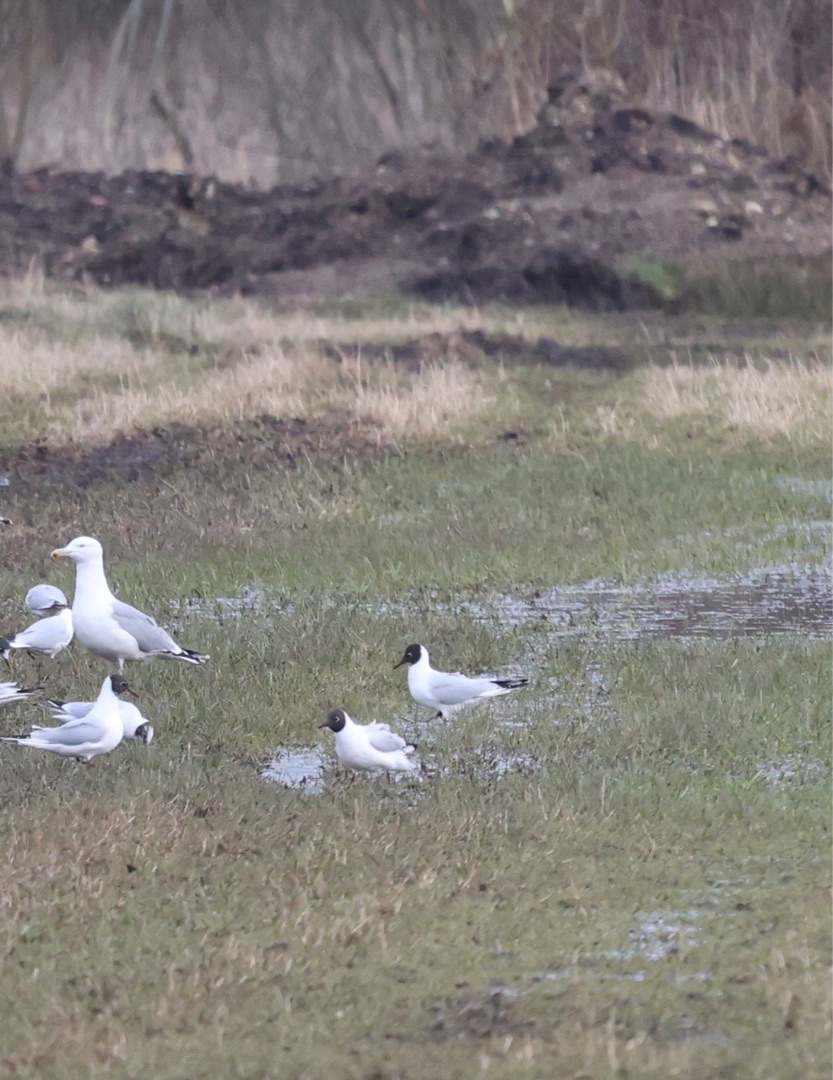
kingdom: Animalia
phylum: Chordata
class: Aves
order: Charadriiformes
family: Laridae
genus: Chroicocephalus
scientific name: Chroicocephalus ridibundus
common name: Hættemåge
